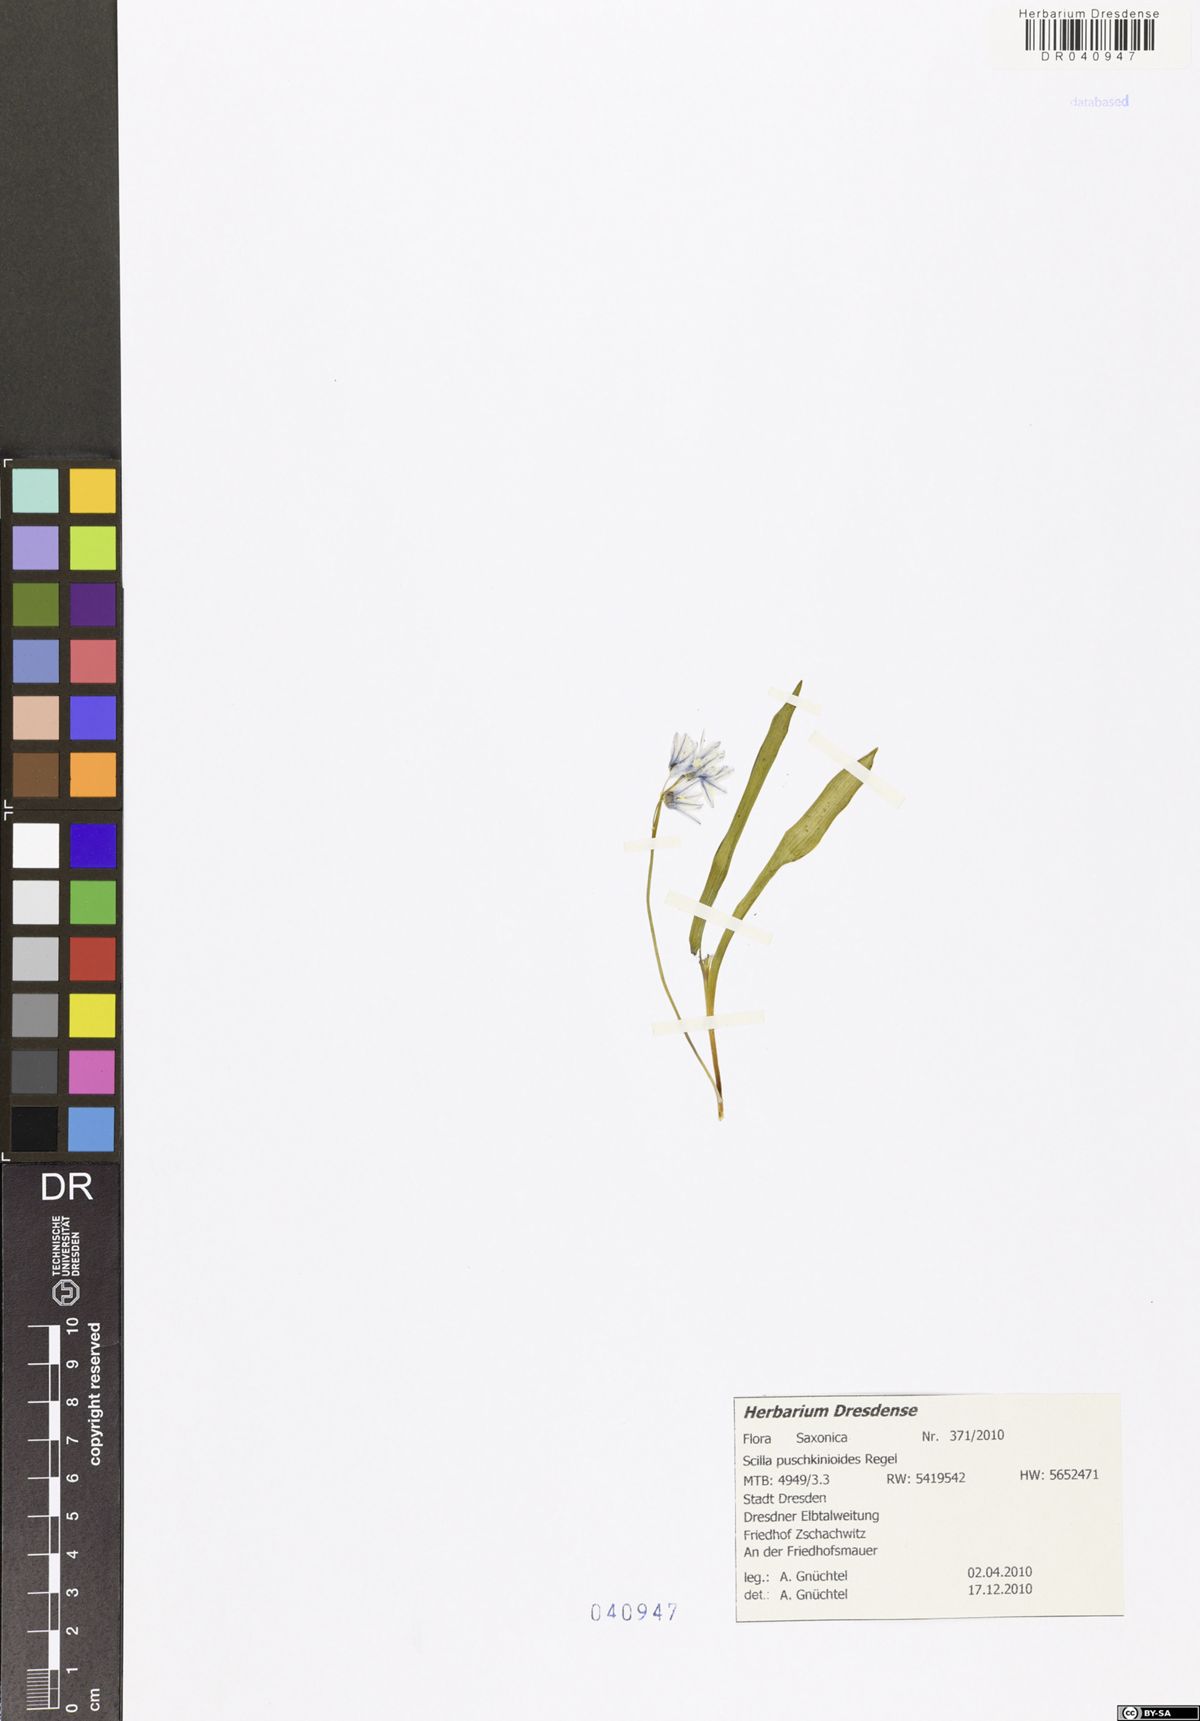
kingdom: Plantae
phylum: Tracheophyta
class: Liliopsida
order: Asparagales
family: Asparagaceae
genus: Fessia
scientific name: Fessia puschkinioides
